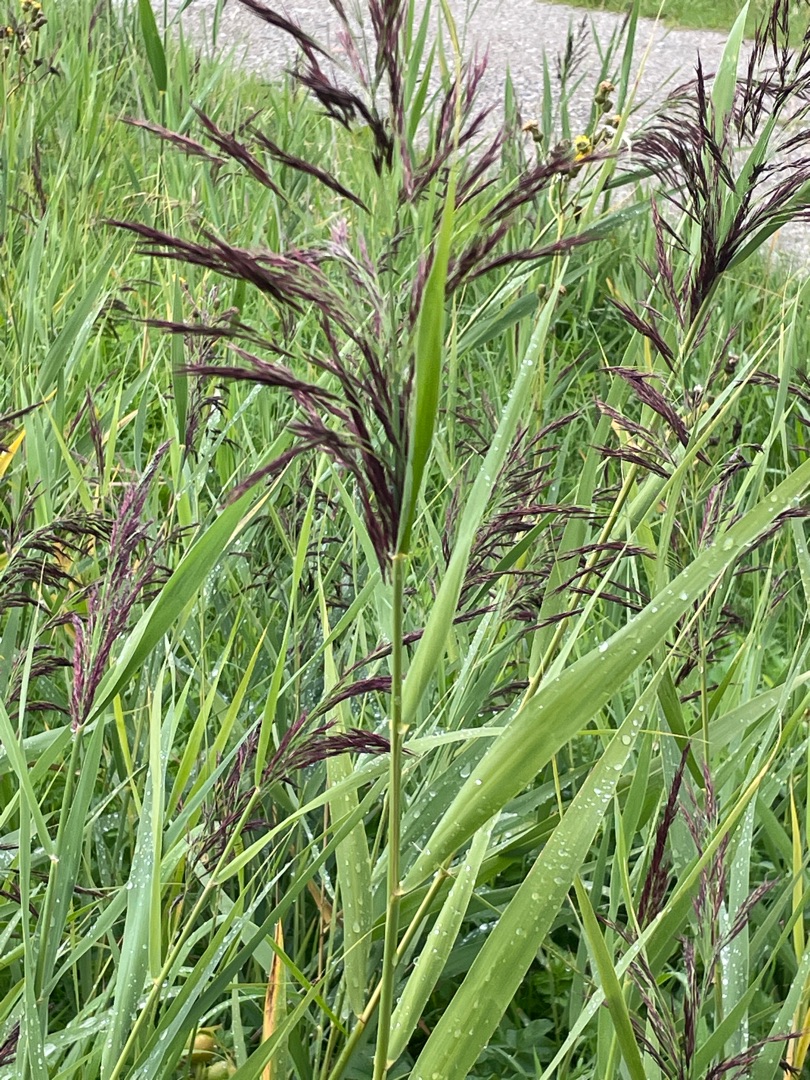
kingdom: Plantae
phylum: Tracheophyta
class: Liliopsida
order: Poales
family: Poaceae
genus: Phragmites
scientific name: Phragmites australis
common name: Tagrør
